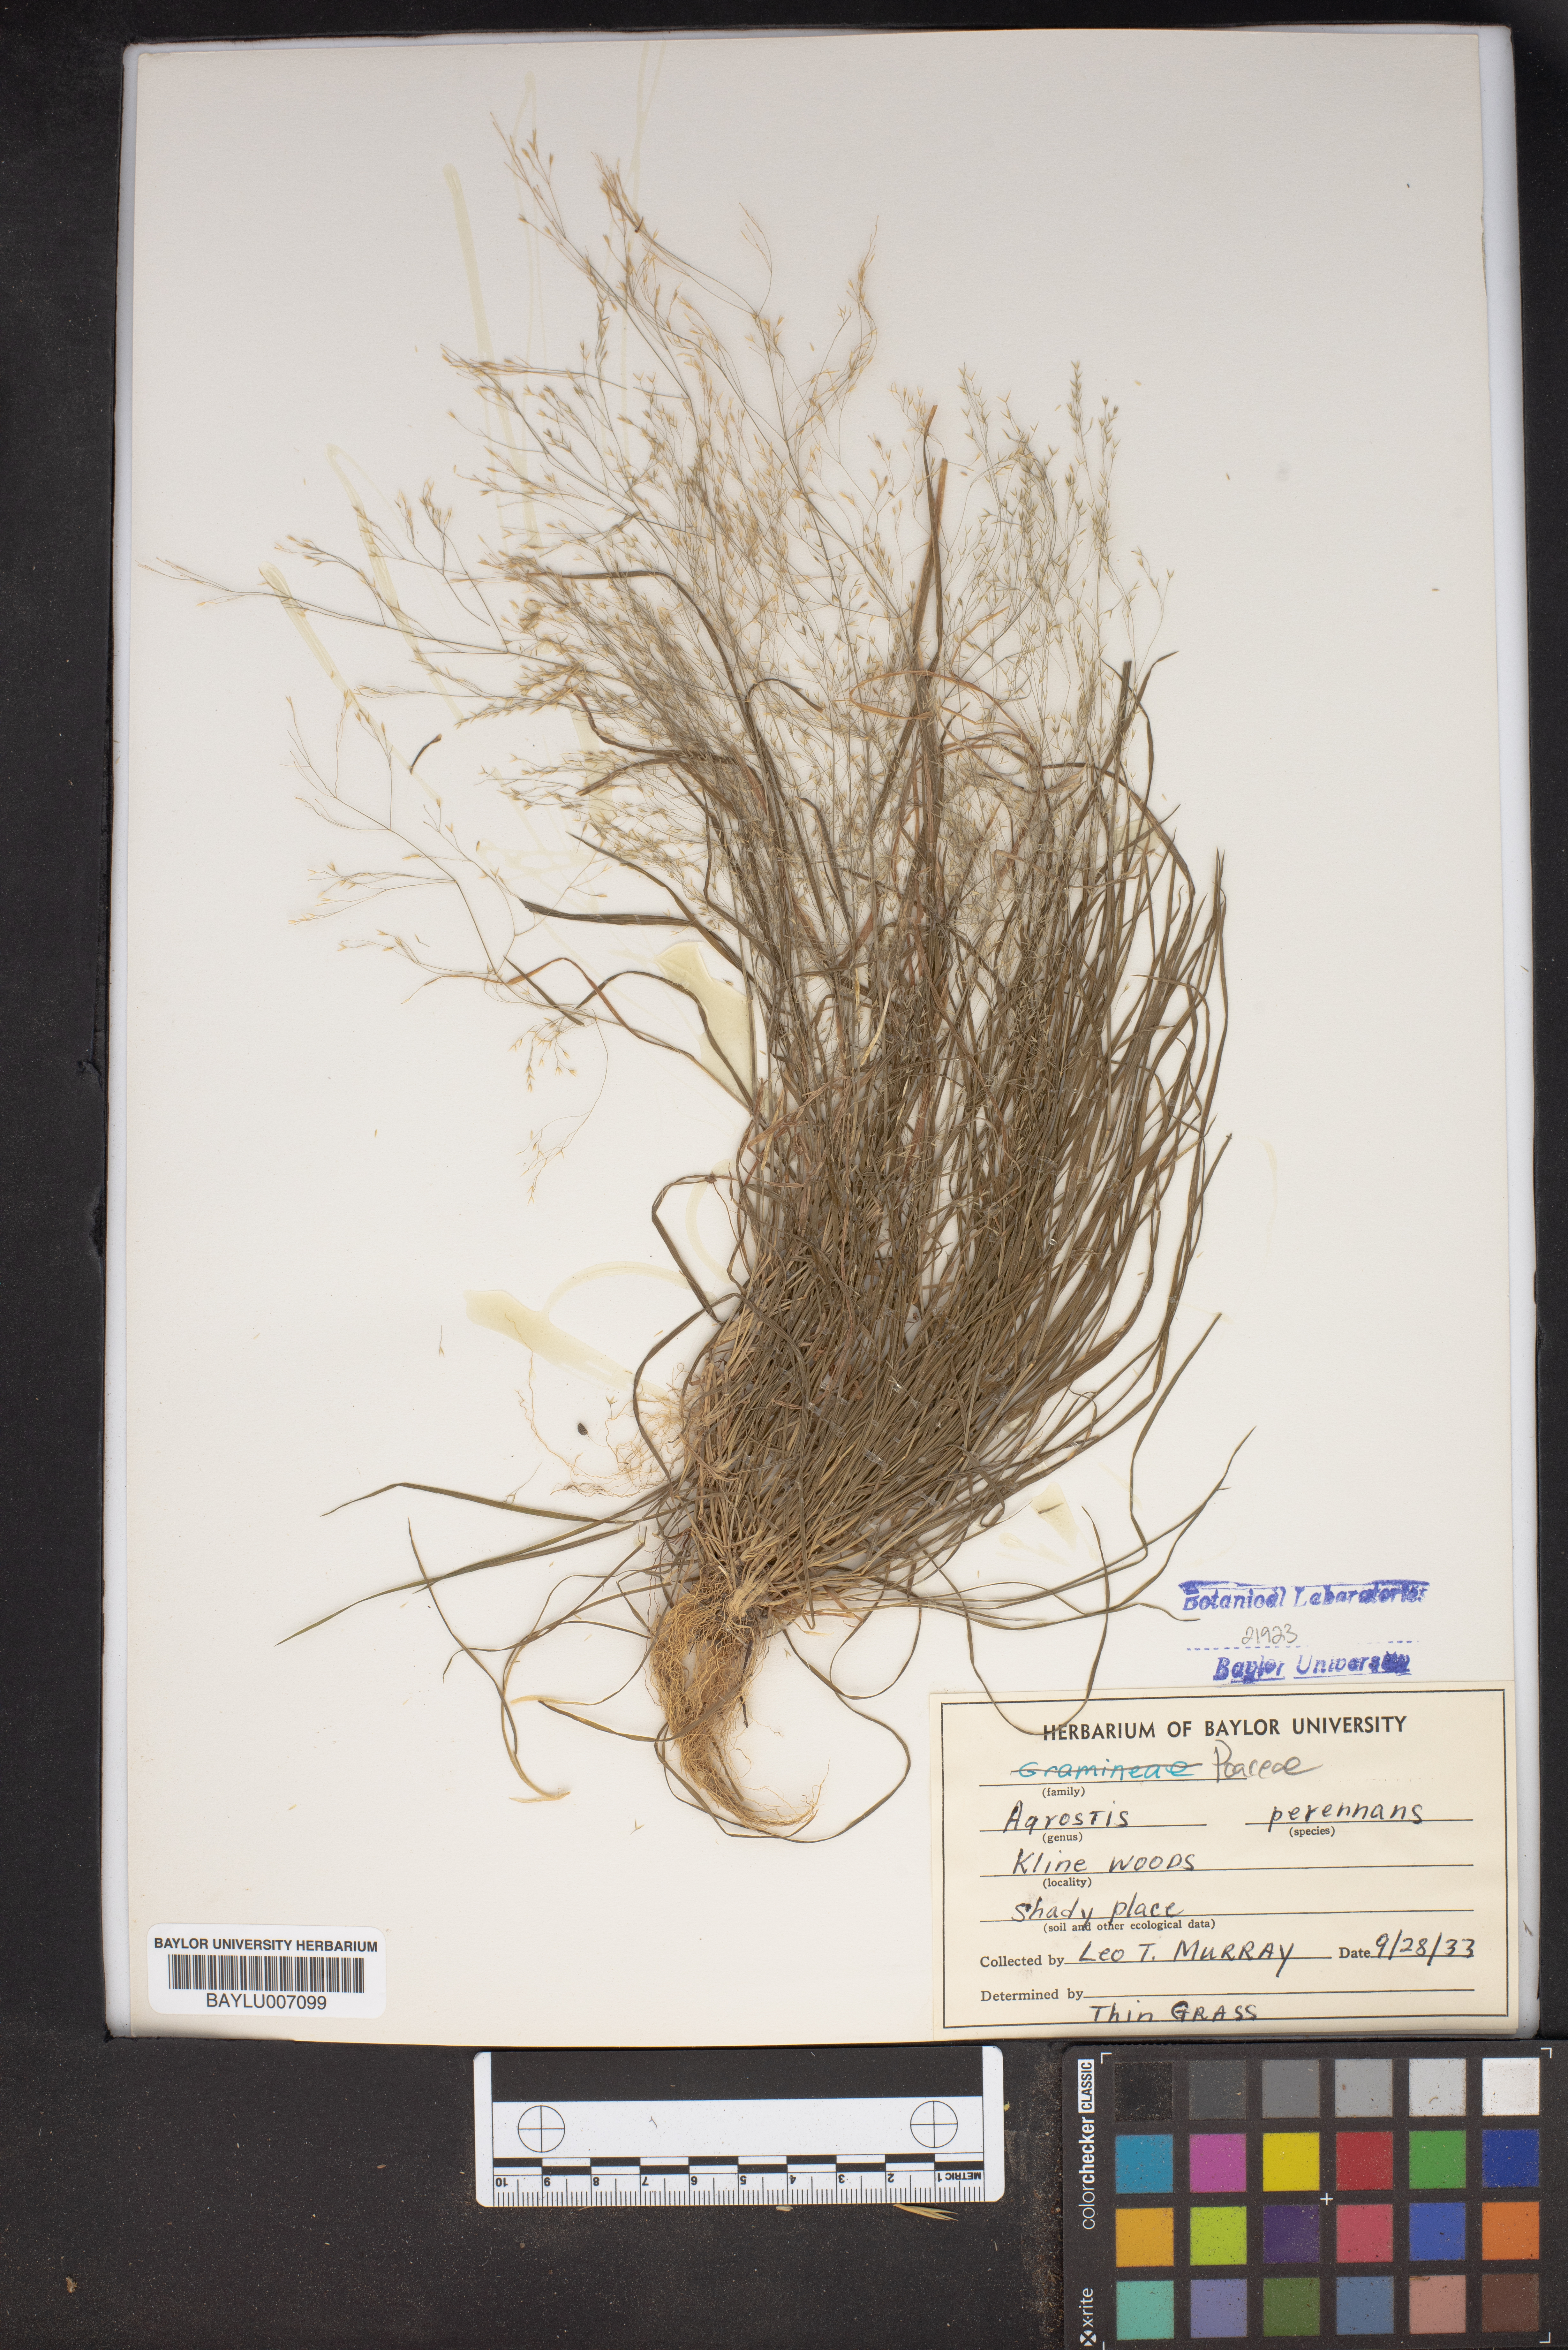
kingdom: Plantae
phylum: Tracheophyta
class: Liliopsida
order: Poales
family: Poaceae
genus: Agrostis
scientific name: Agrostis perennans
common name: Autumn bent
